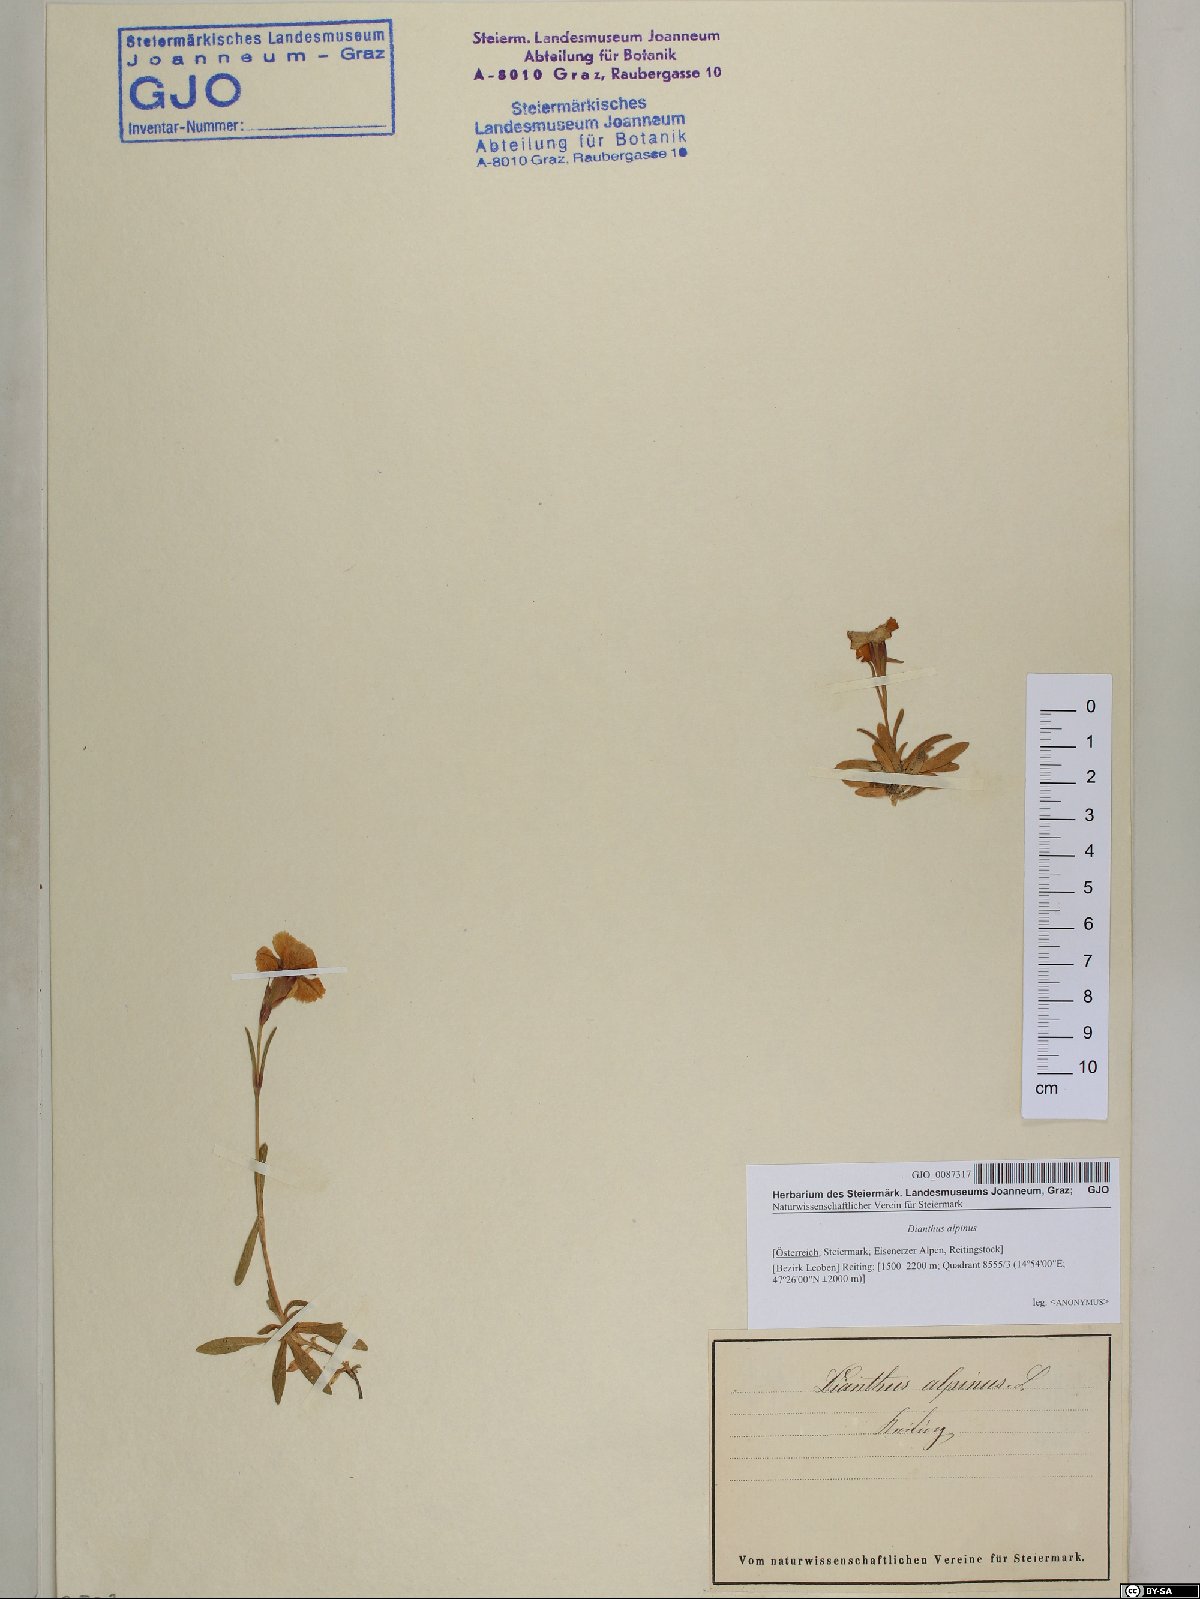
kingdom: Plantae
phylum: Tracheophyta
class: Magnoliopsida
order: Caryophyllales
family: Caryophyllaceae
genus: Dianthus
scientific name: Dianthus alpinus
